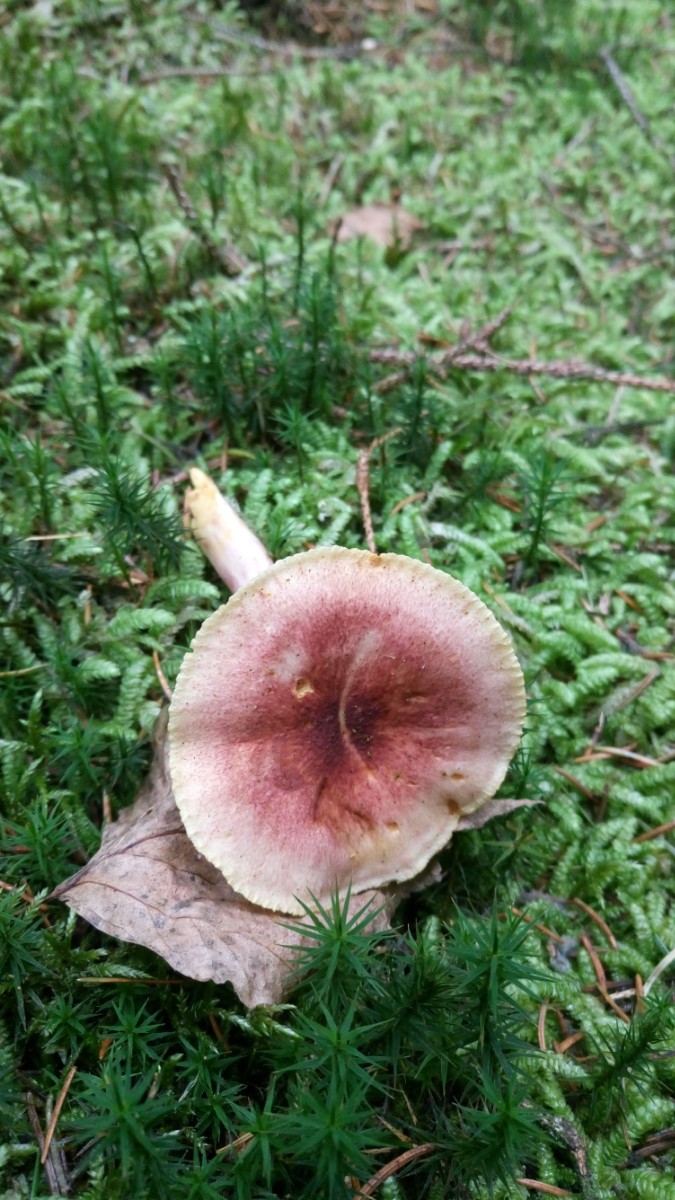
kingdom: Fungi
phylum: Basidiomycota
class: Agaricomycetes
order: Agaricales
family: Tricholomataceae
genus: Tricholomopsis
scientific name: Tricholomopsis rutilans
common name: purpur-væbnerhat
